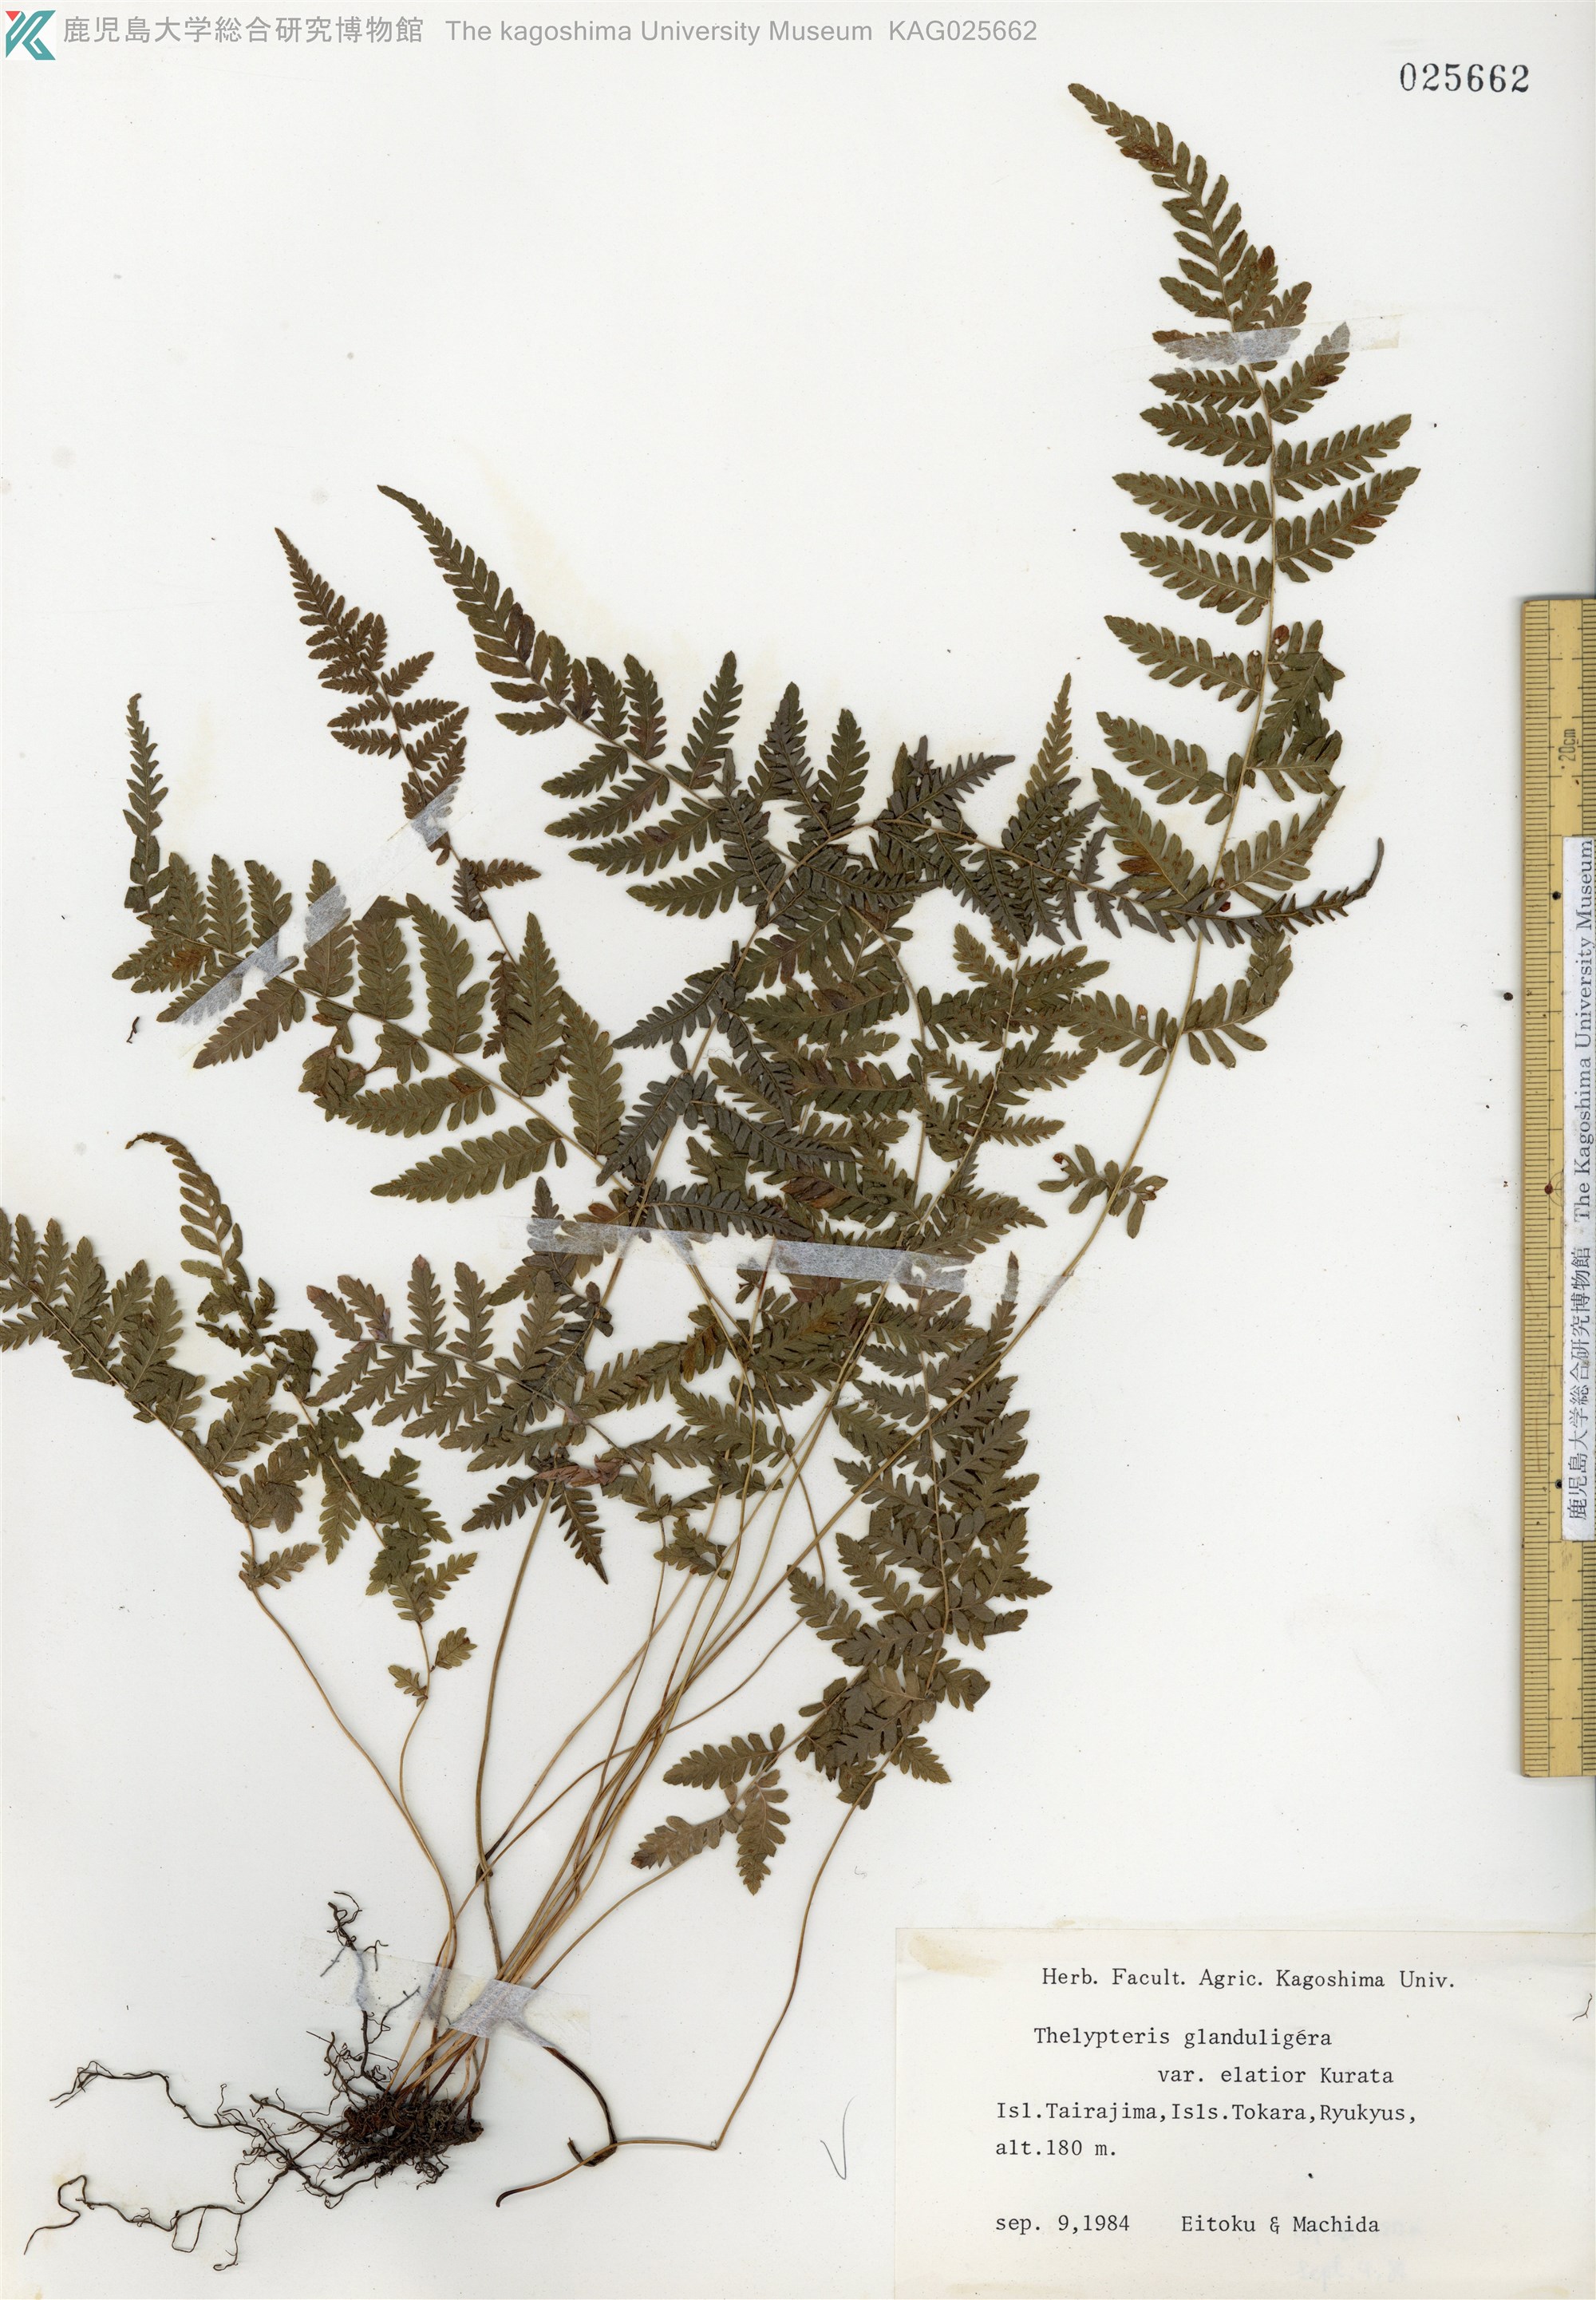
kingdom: Plantae
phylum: Tracheophyta
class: Polypodiopsida
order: Polypodiales
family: Thelypteridaceae
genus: Amauropelta
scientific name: Amauropelta angustifrons
